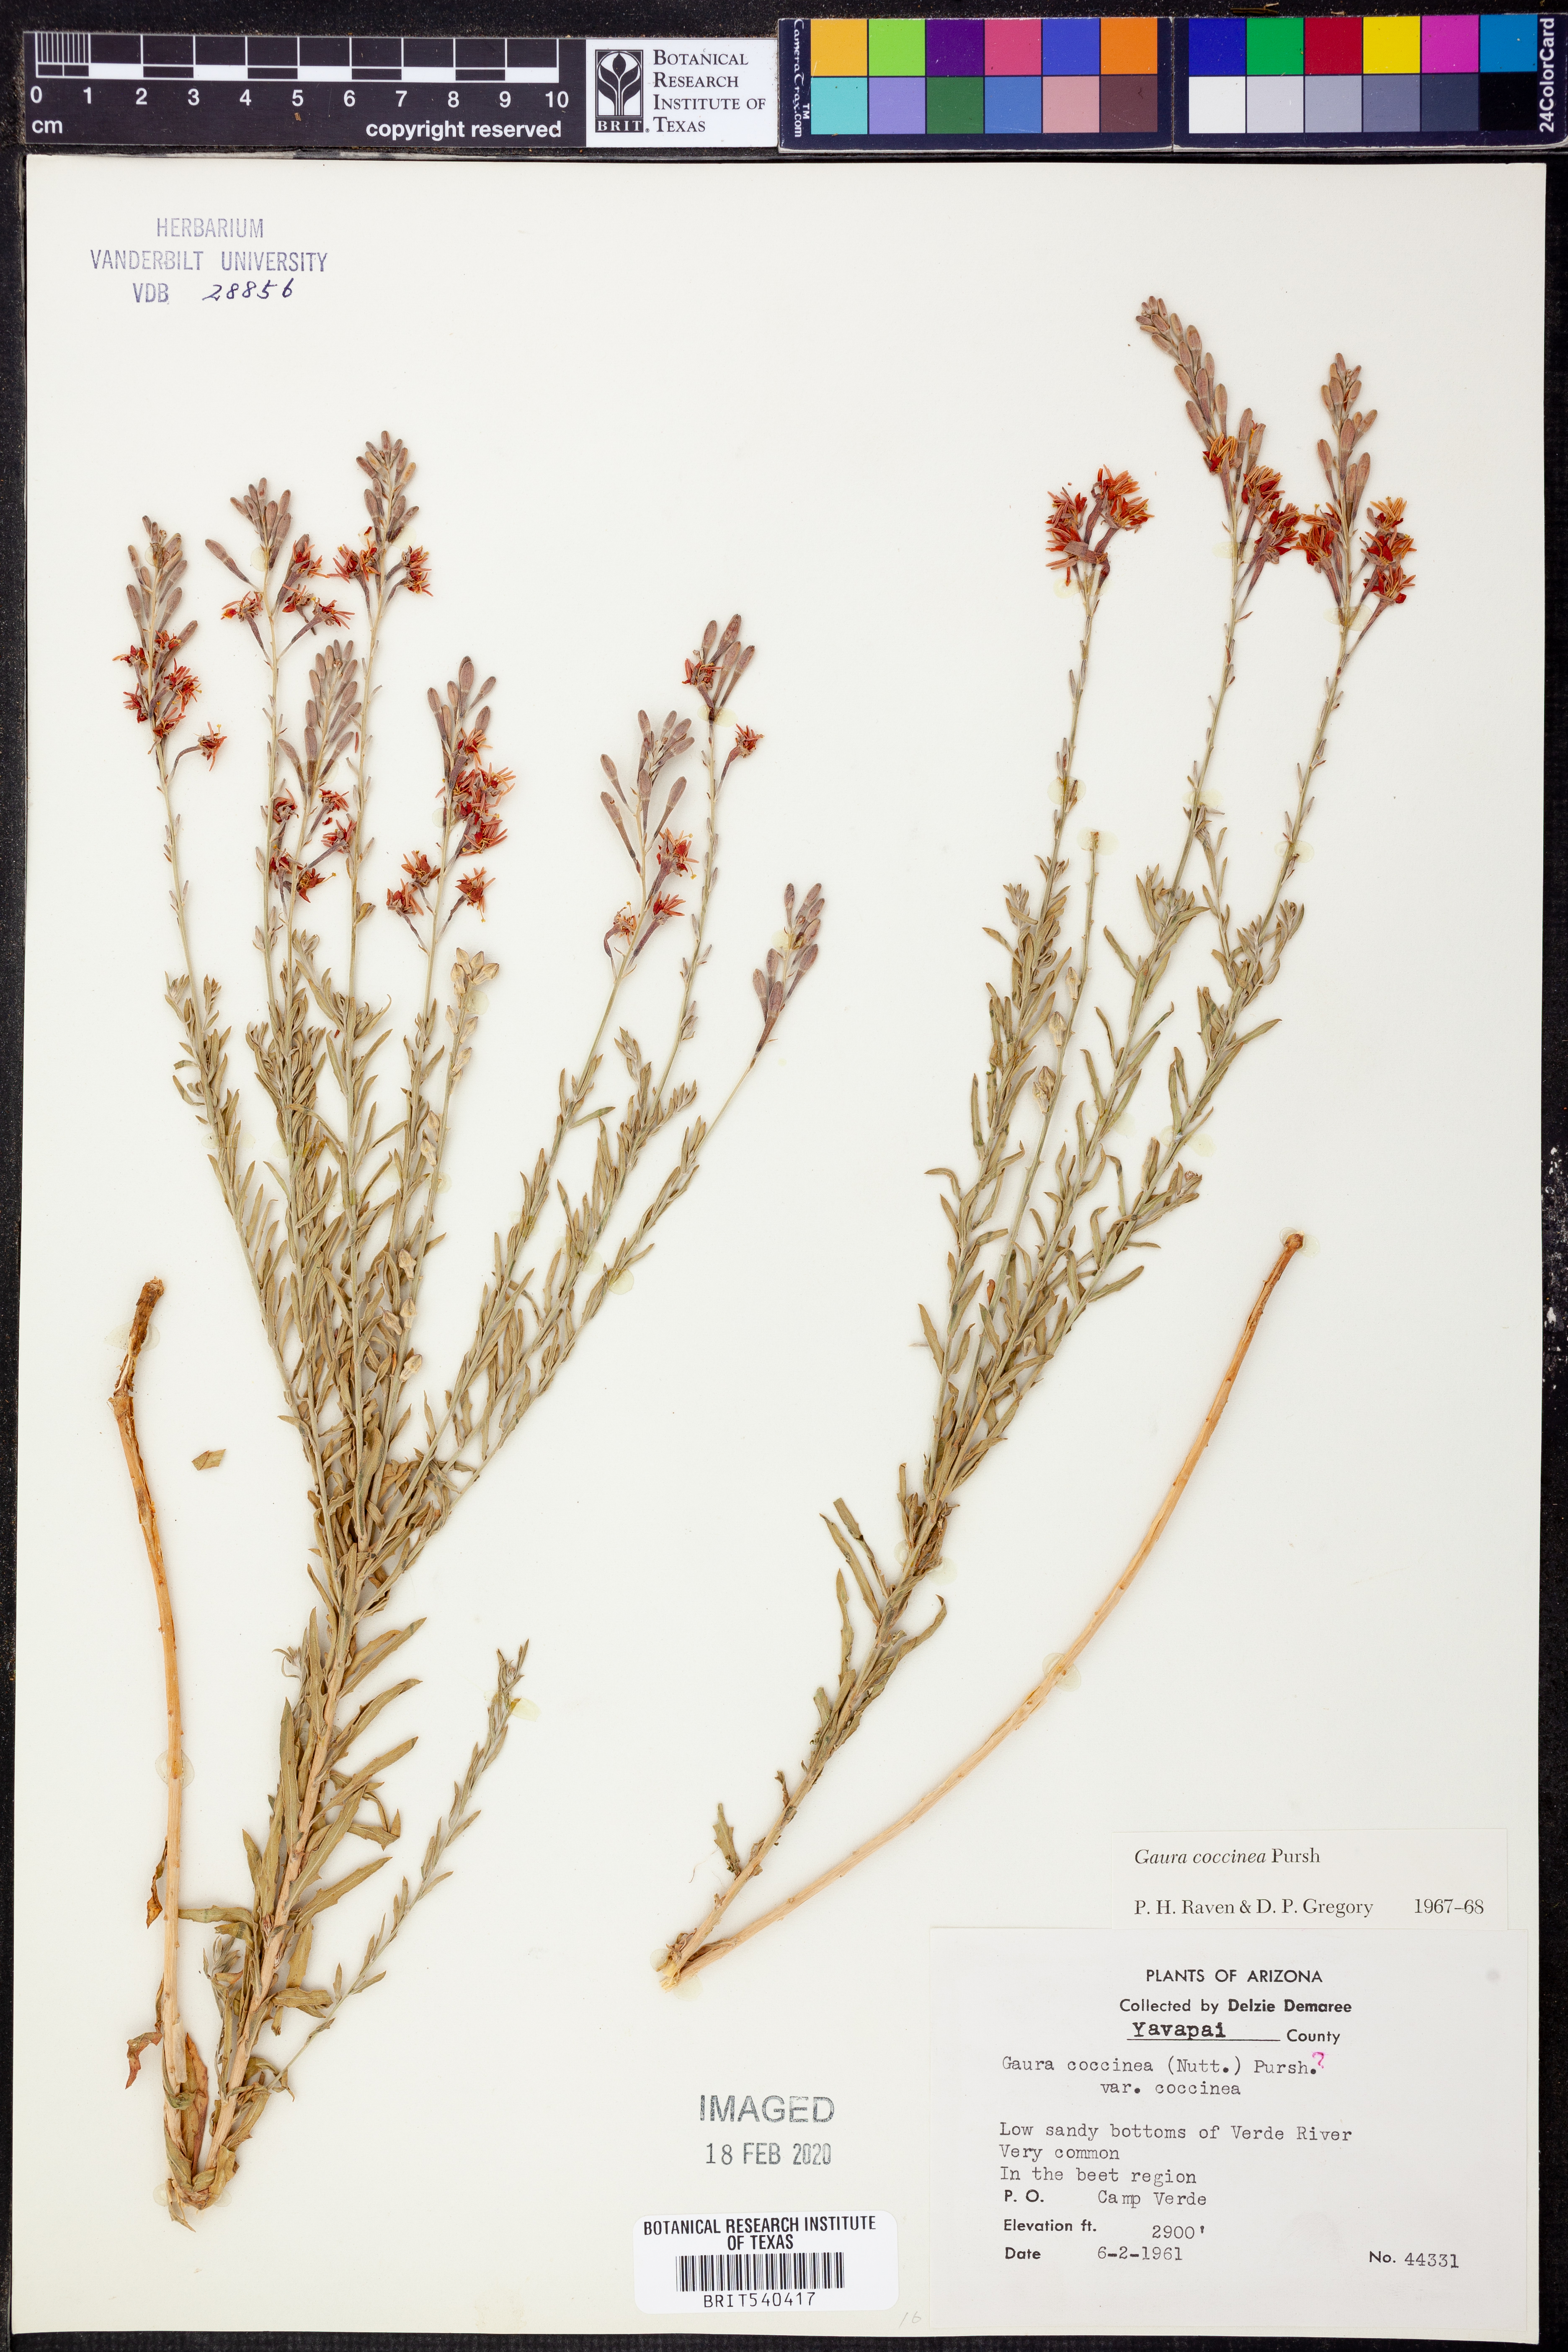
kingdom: Plantae
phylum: Tracheophyta
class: Magnoliopsida
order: Myrtales
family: Onagraceae
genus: Oenothera
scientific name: Oenothera suffrutescens
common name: Scarlet beeblossom
